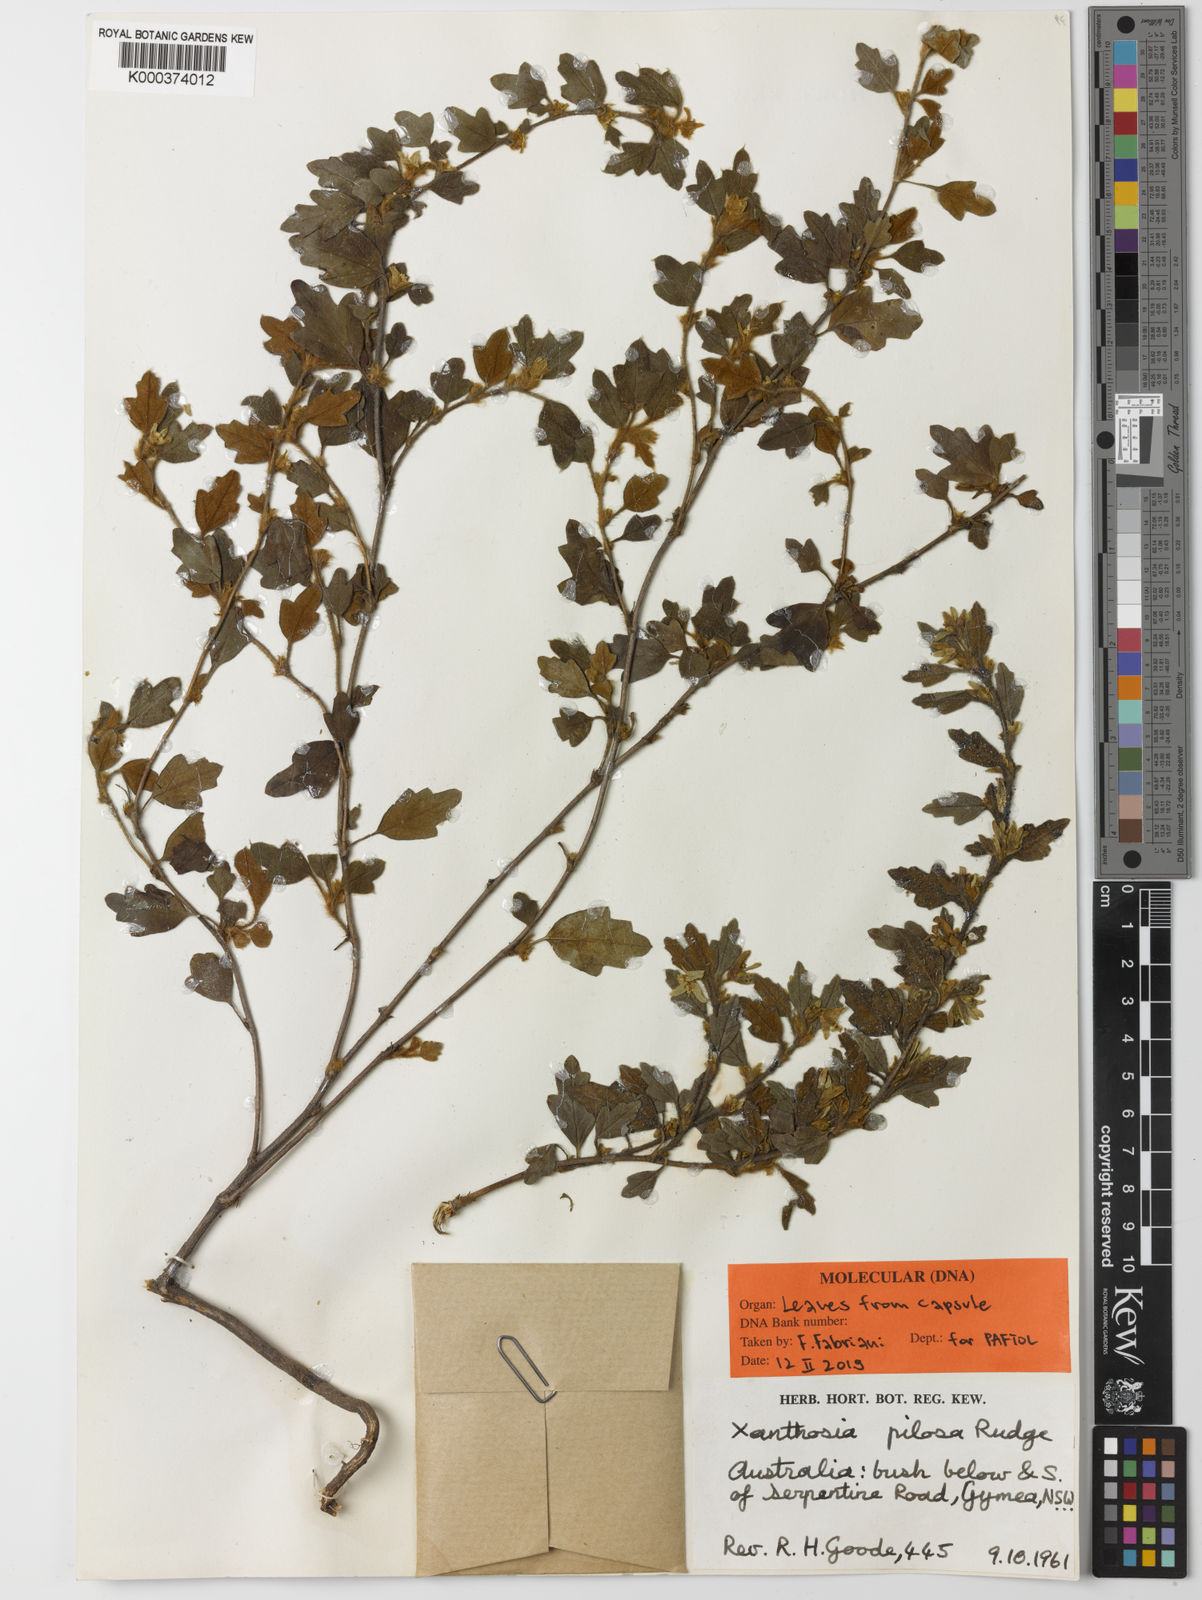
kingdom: Plantae
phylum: Tracheophyta
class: Magnoliopsida
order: Apiales
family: Apiaceae
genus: Xanthosia
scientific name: Xanthosia pilosa
